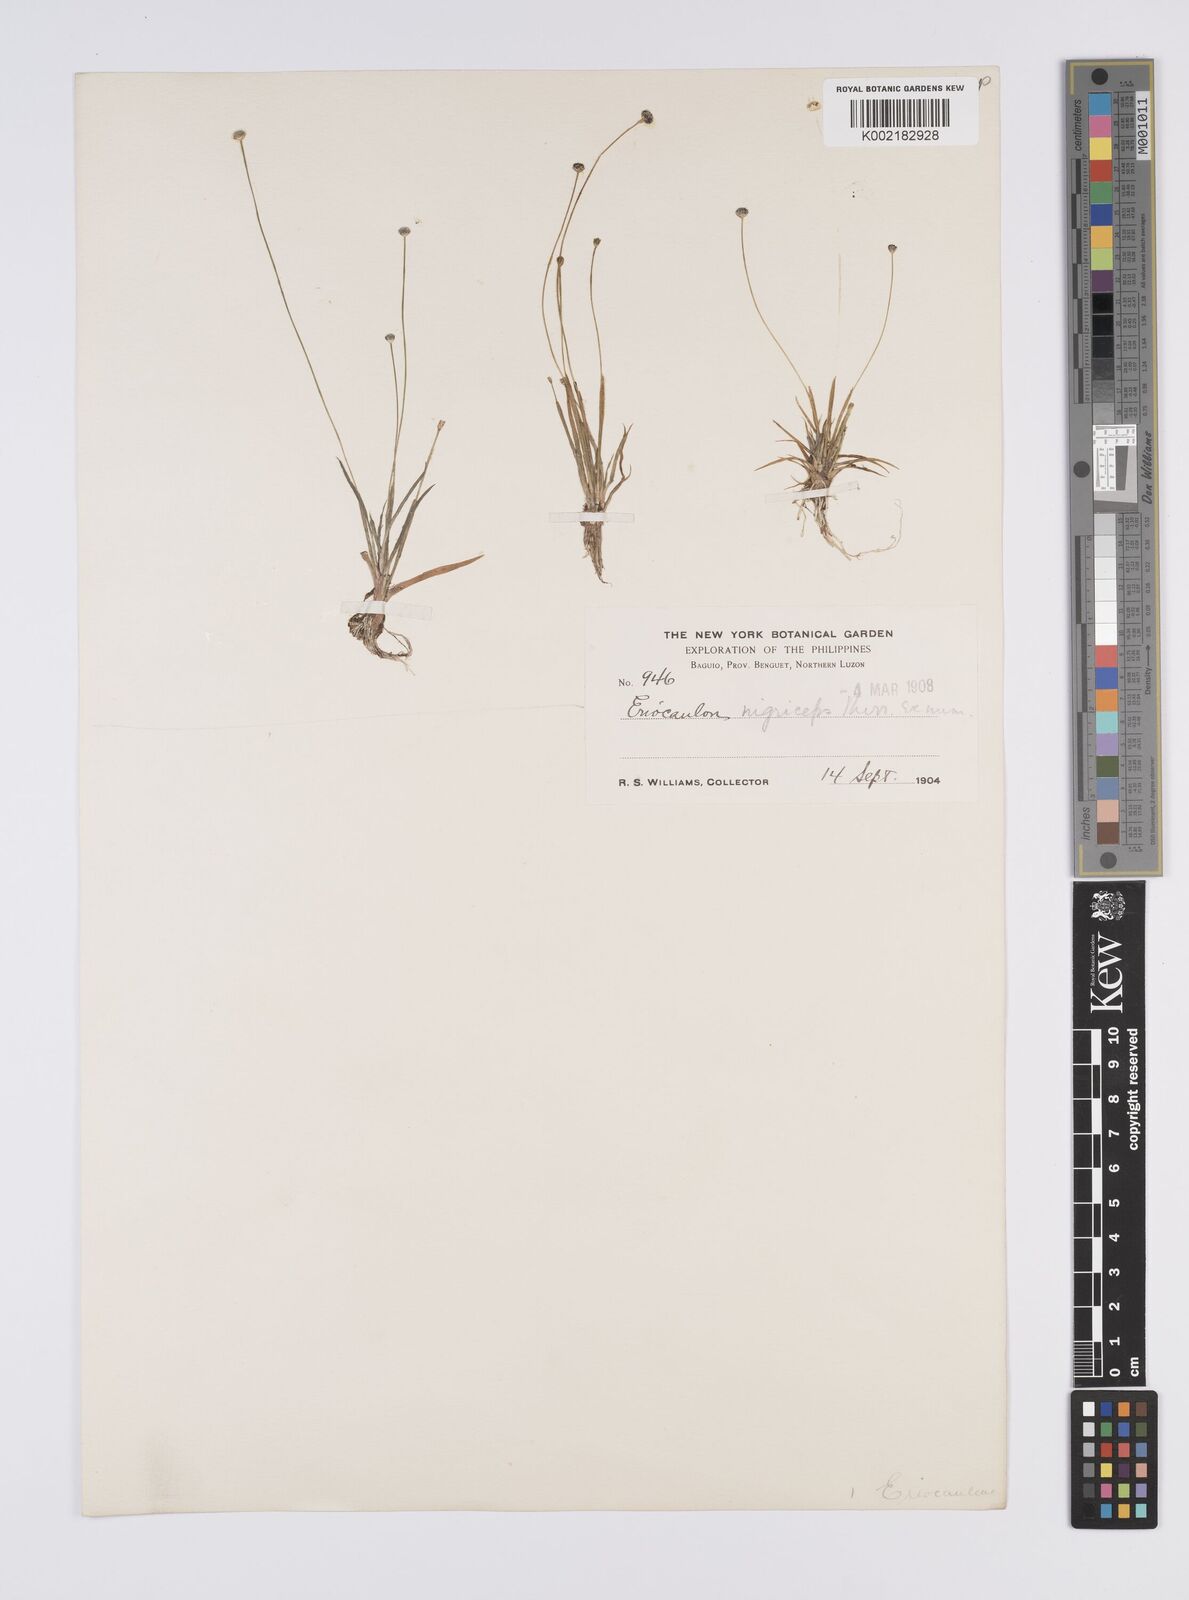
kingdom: Plantae
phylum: Tracheophyta
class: Liliopsida
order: Poales
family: Eriocaulaceae
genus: Eriocaulon
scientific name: Eriocaulon nigriceps
